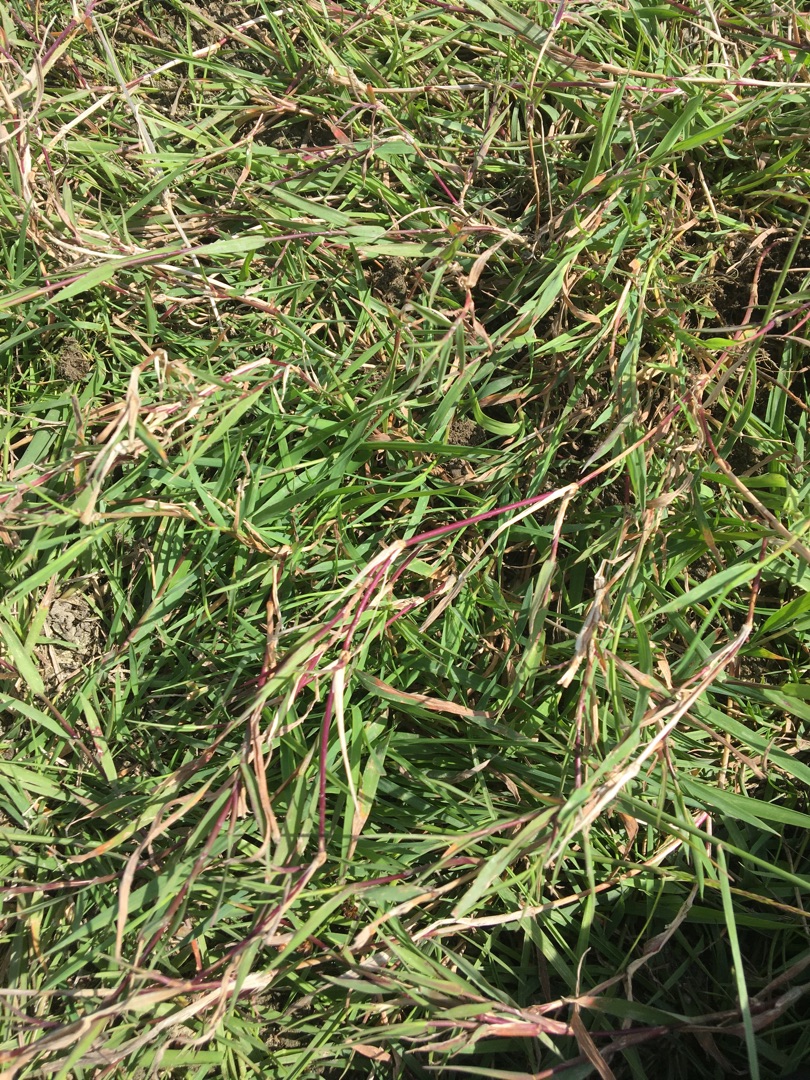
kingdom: Plantae
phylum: Tracheophyta
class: Liliopsida
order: Poales
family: Poaceae
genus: Agrostis
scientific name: Agrostis stolonifera
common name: Kryb-hvene
